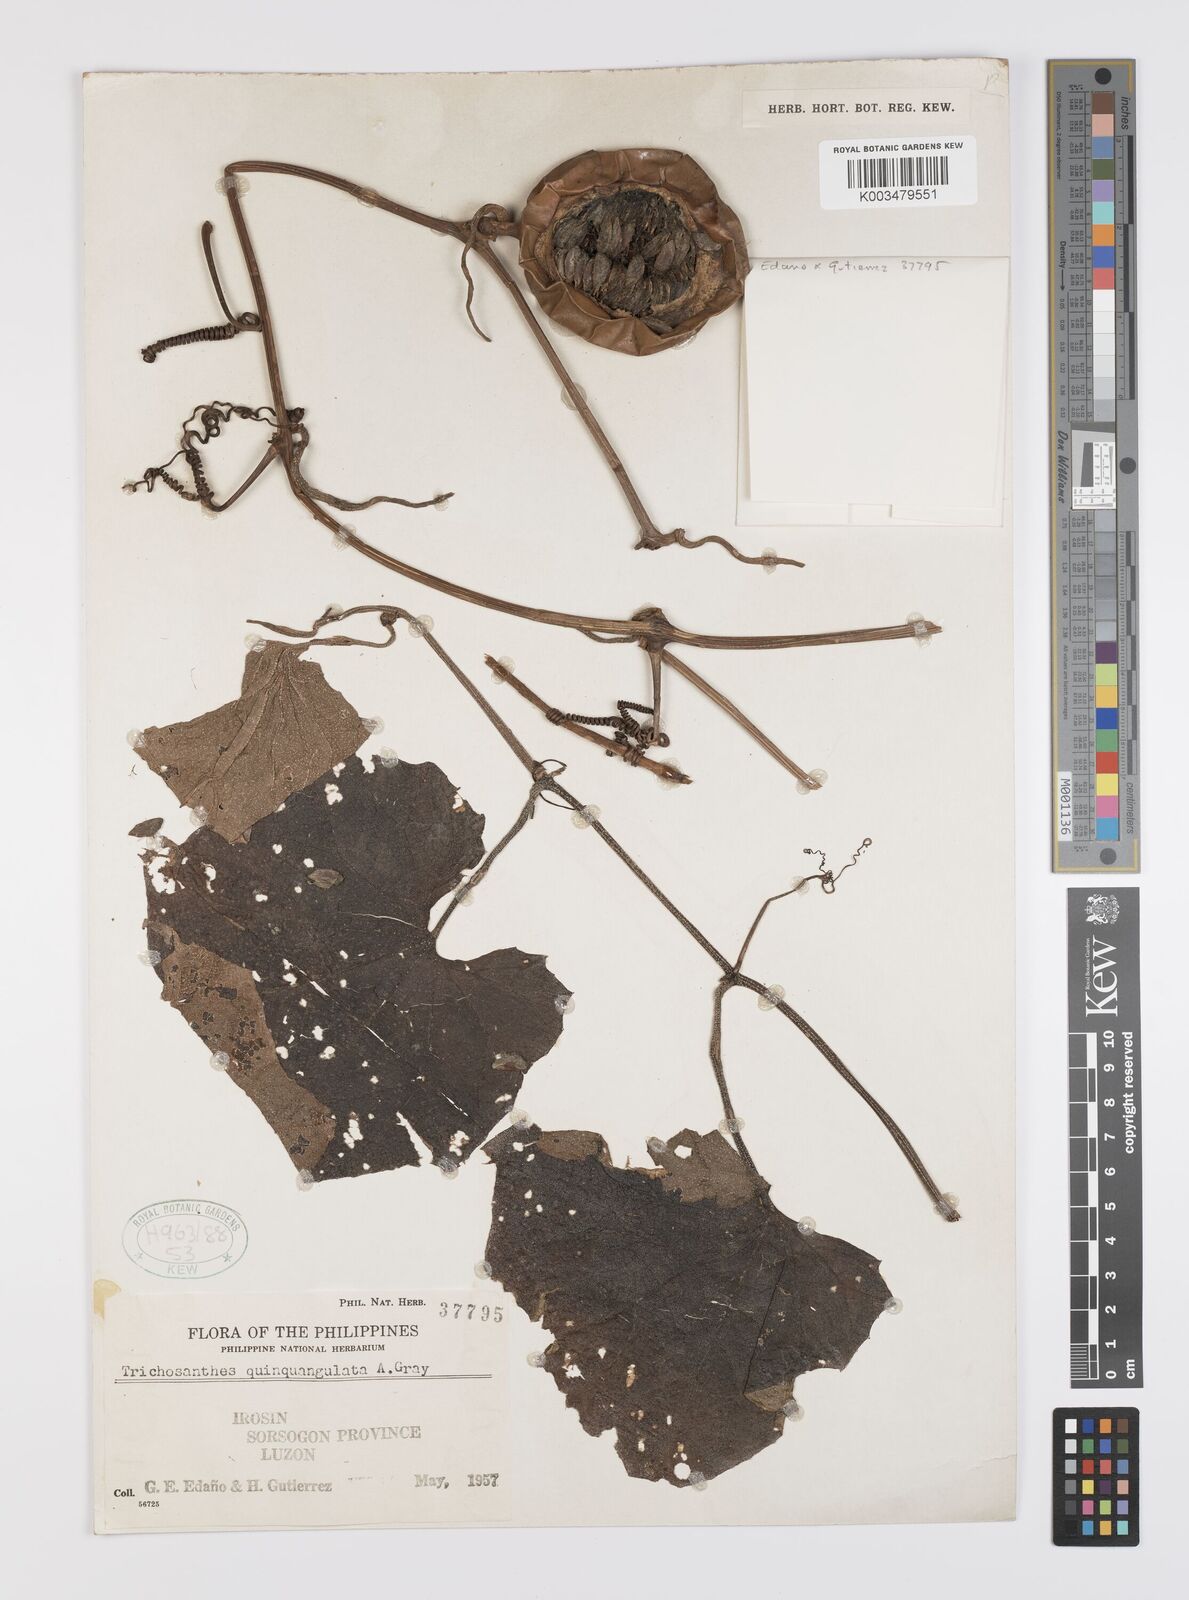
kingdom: Plantae
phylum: Tracheophyta
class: Magnoliopsida
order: Cucurbitales
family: Cucurbitaceae
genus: Trichosanthes
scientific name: Trichosanthes tricuspidata
